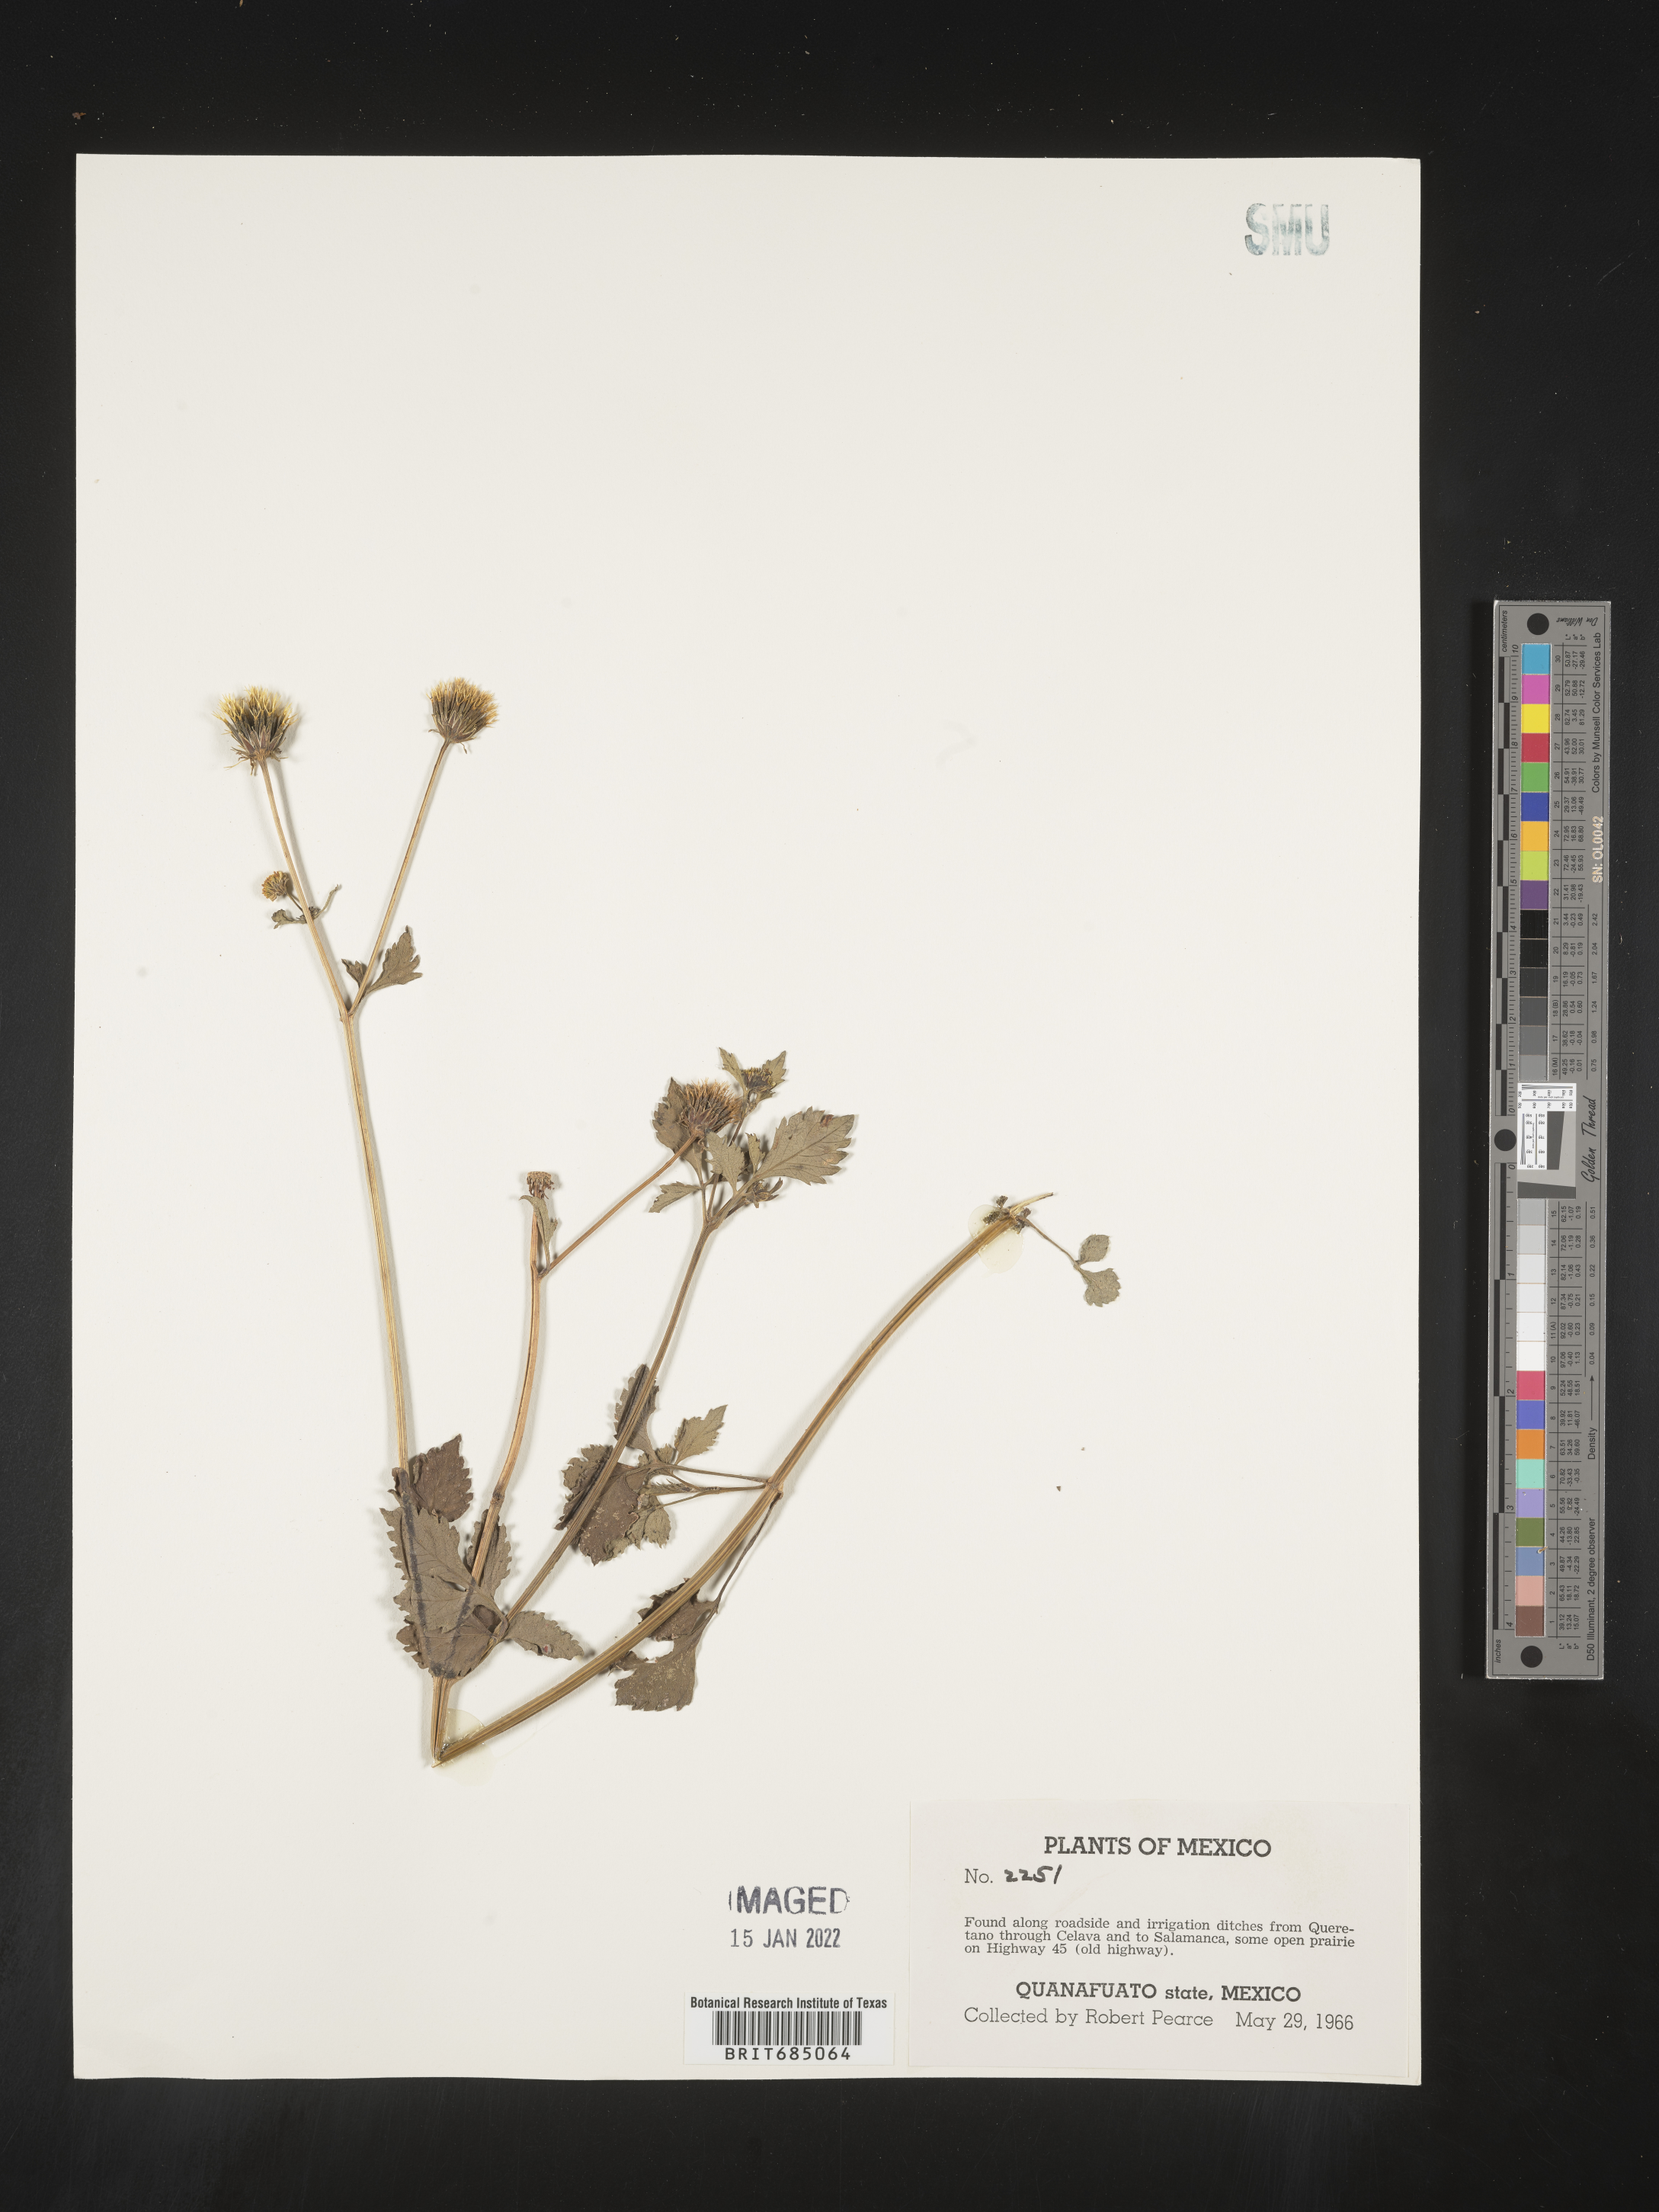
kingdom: Plantae
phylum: Tracheophyta
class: Magnoliopsida
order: Asterales
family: Asteraceae
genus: Bidens
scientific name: Bidens
